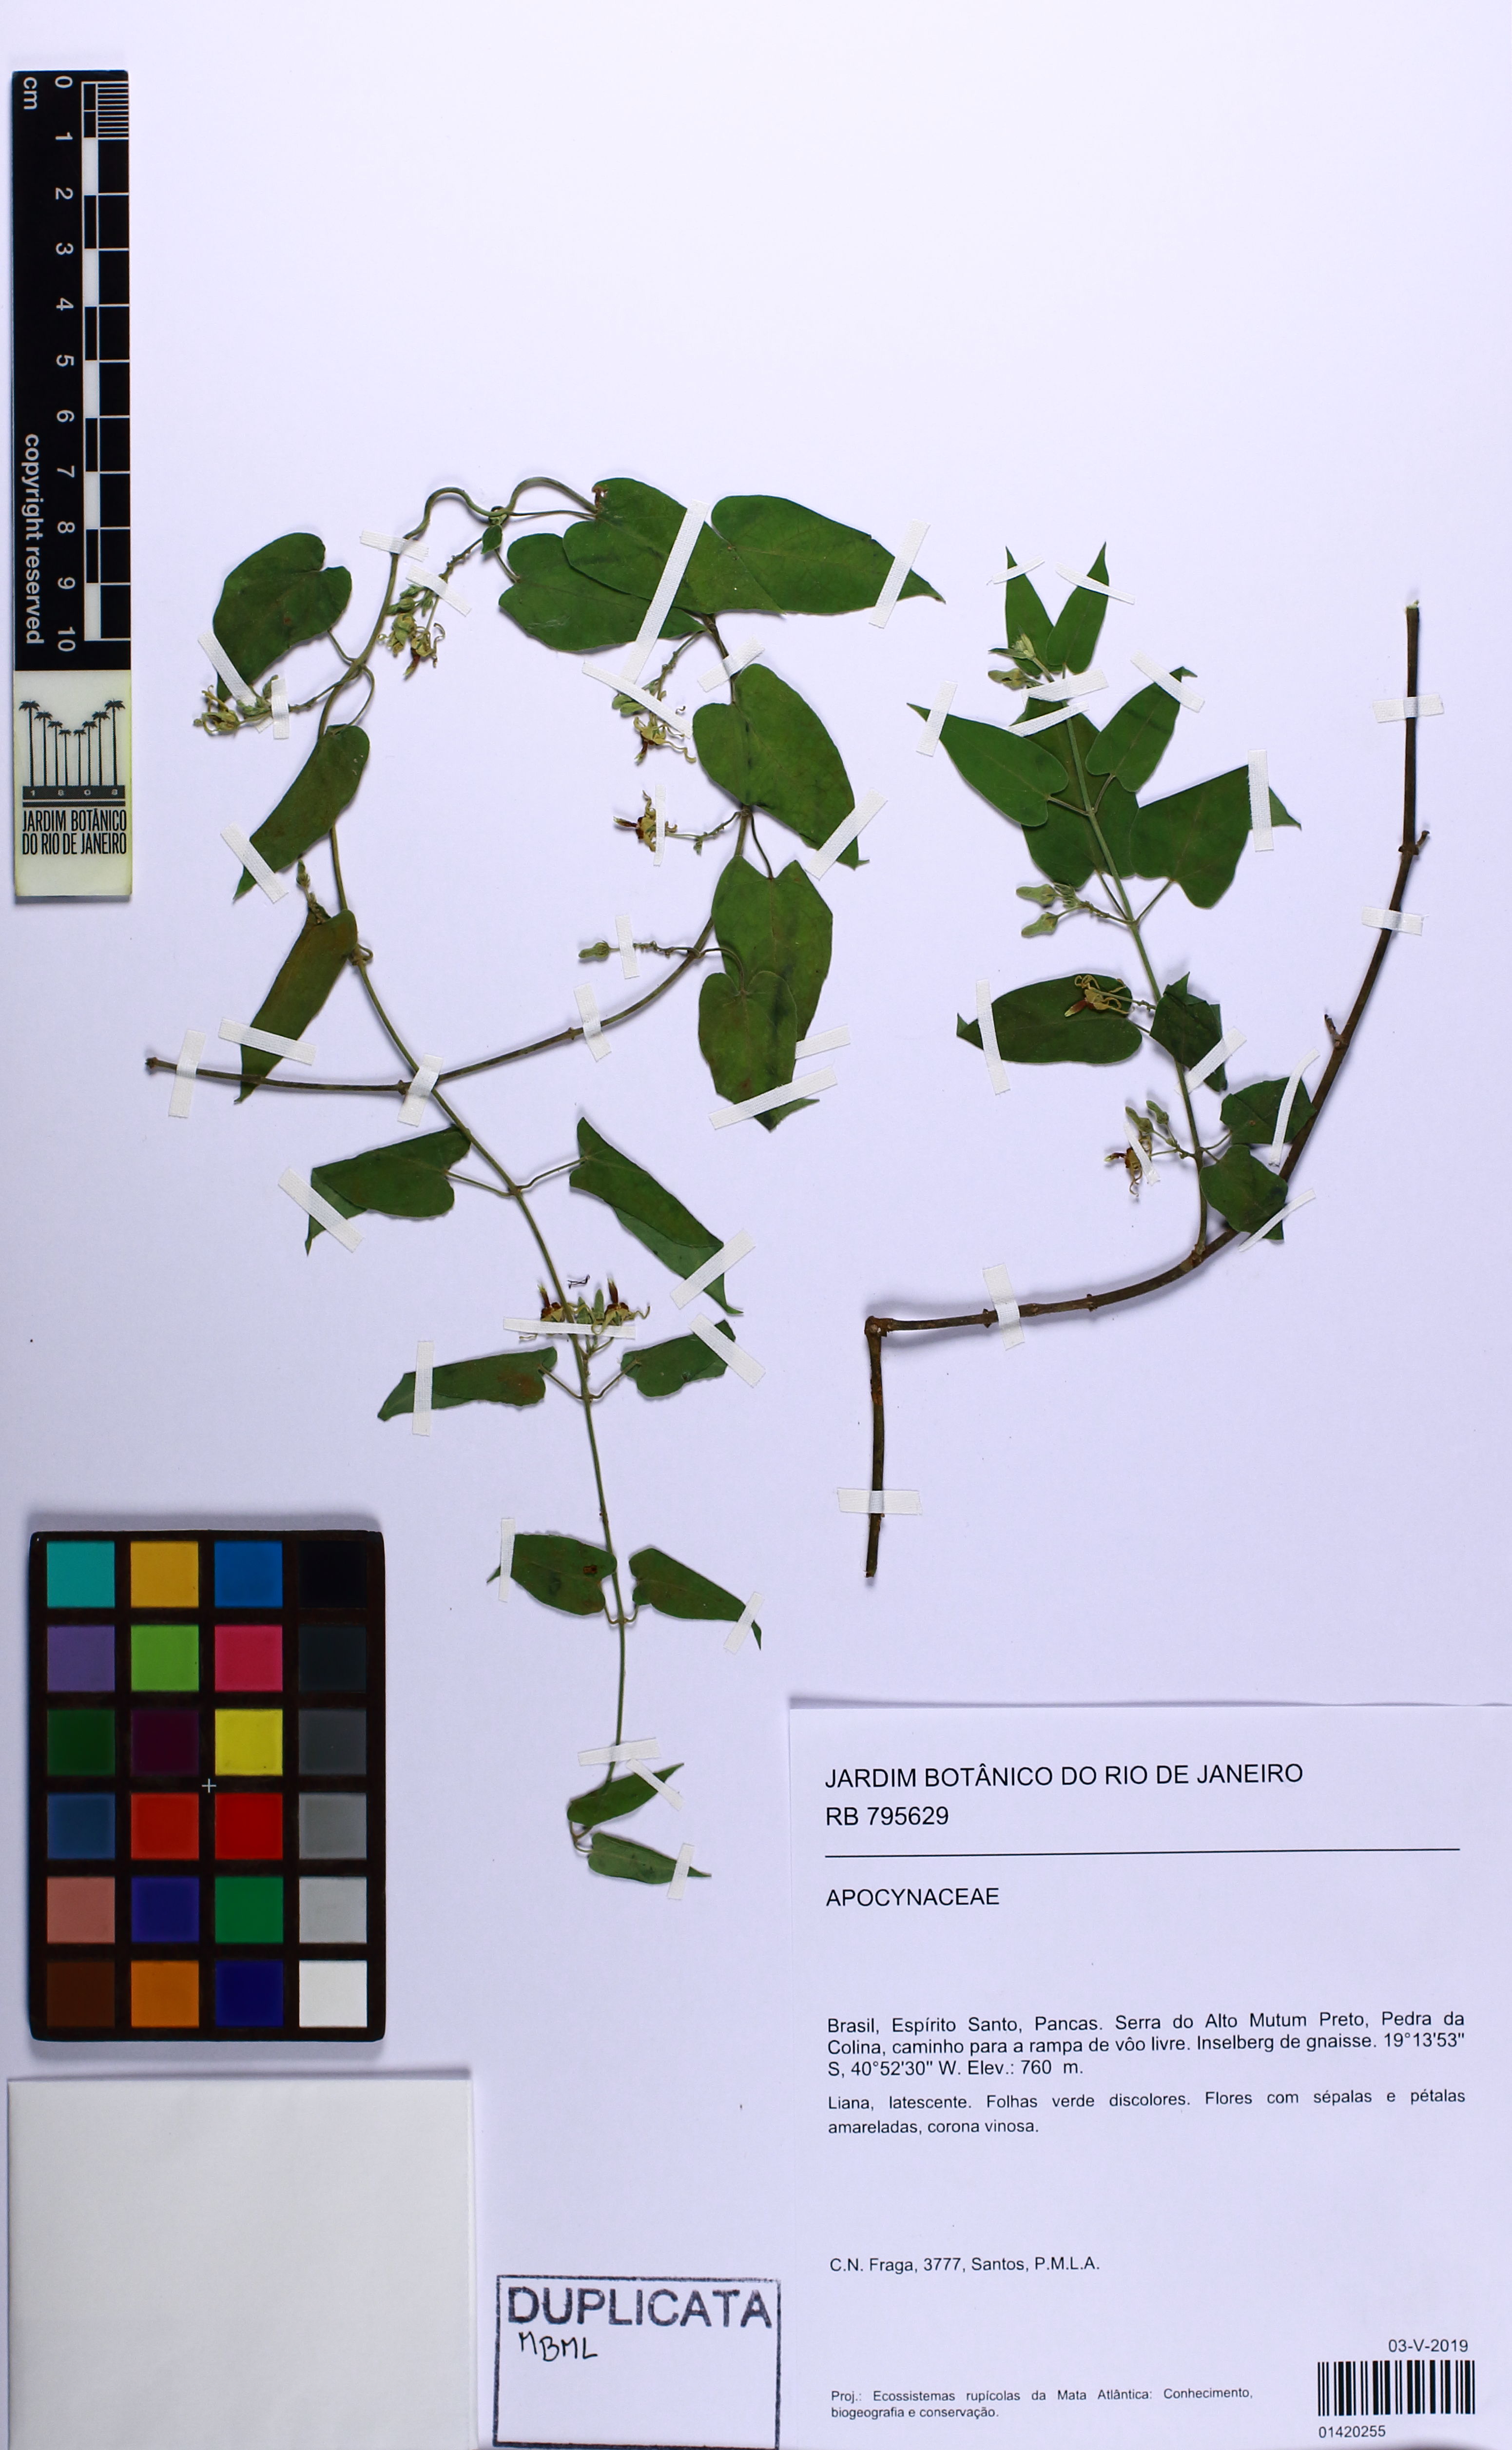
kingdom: Plantae
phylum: Tracheophyta
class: Magnoliopsida
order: Gentianales
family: Apocynaceae
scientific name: Apocynaceae
